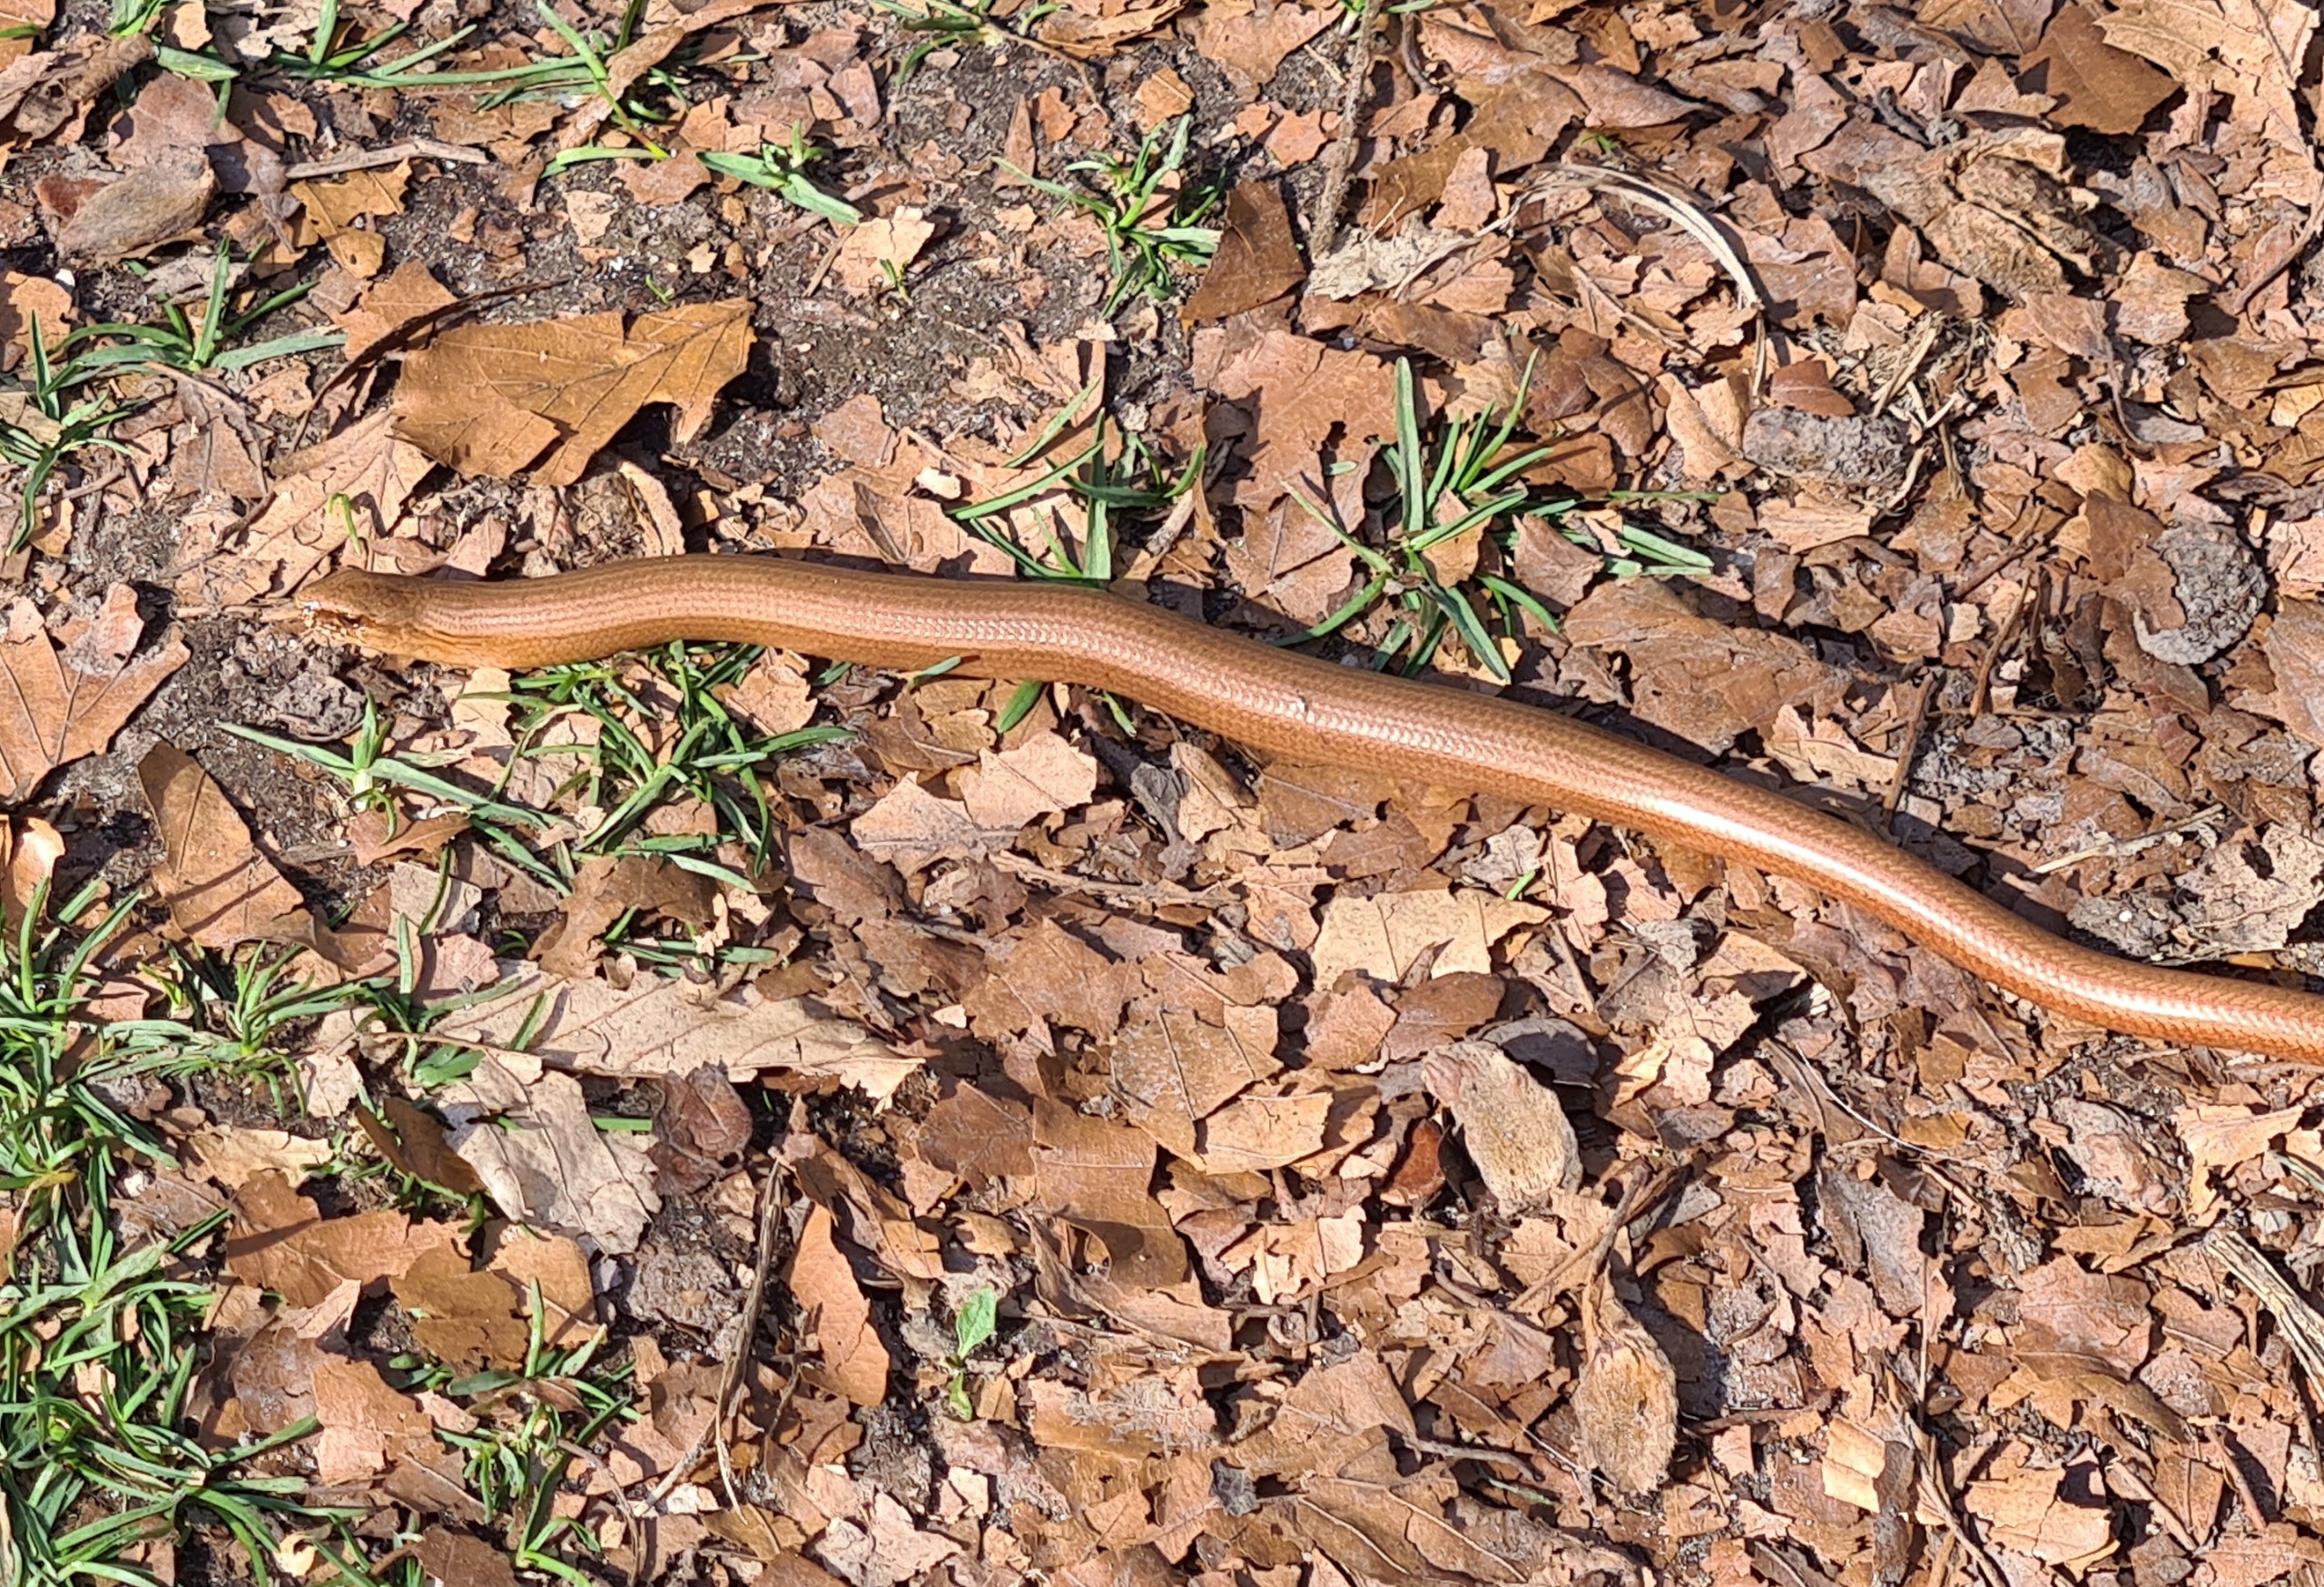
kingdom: Animalia
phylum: Chordata
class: Squamata
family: Anguidae
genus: Anguis
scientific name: Anguis fragilis
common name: Stålorm
